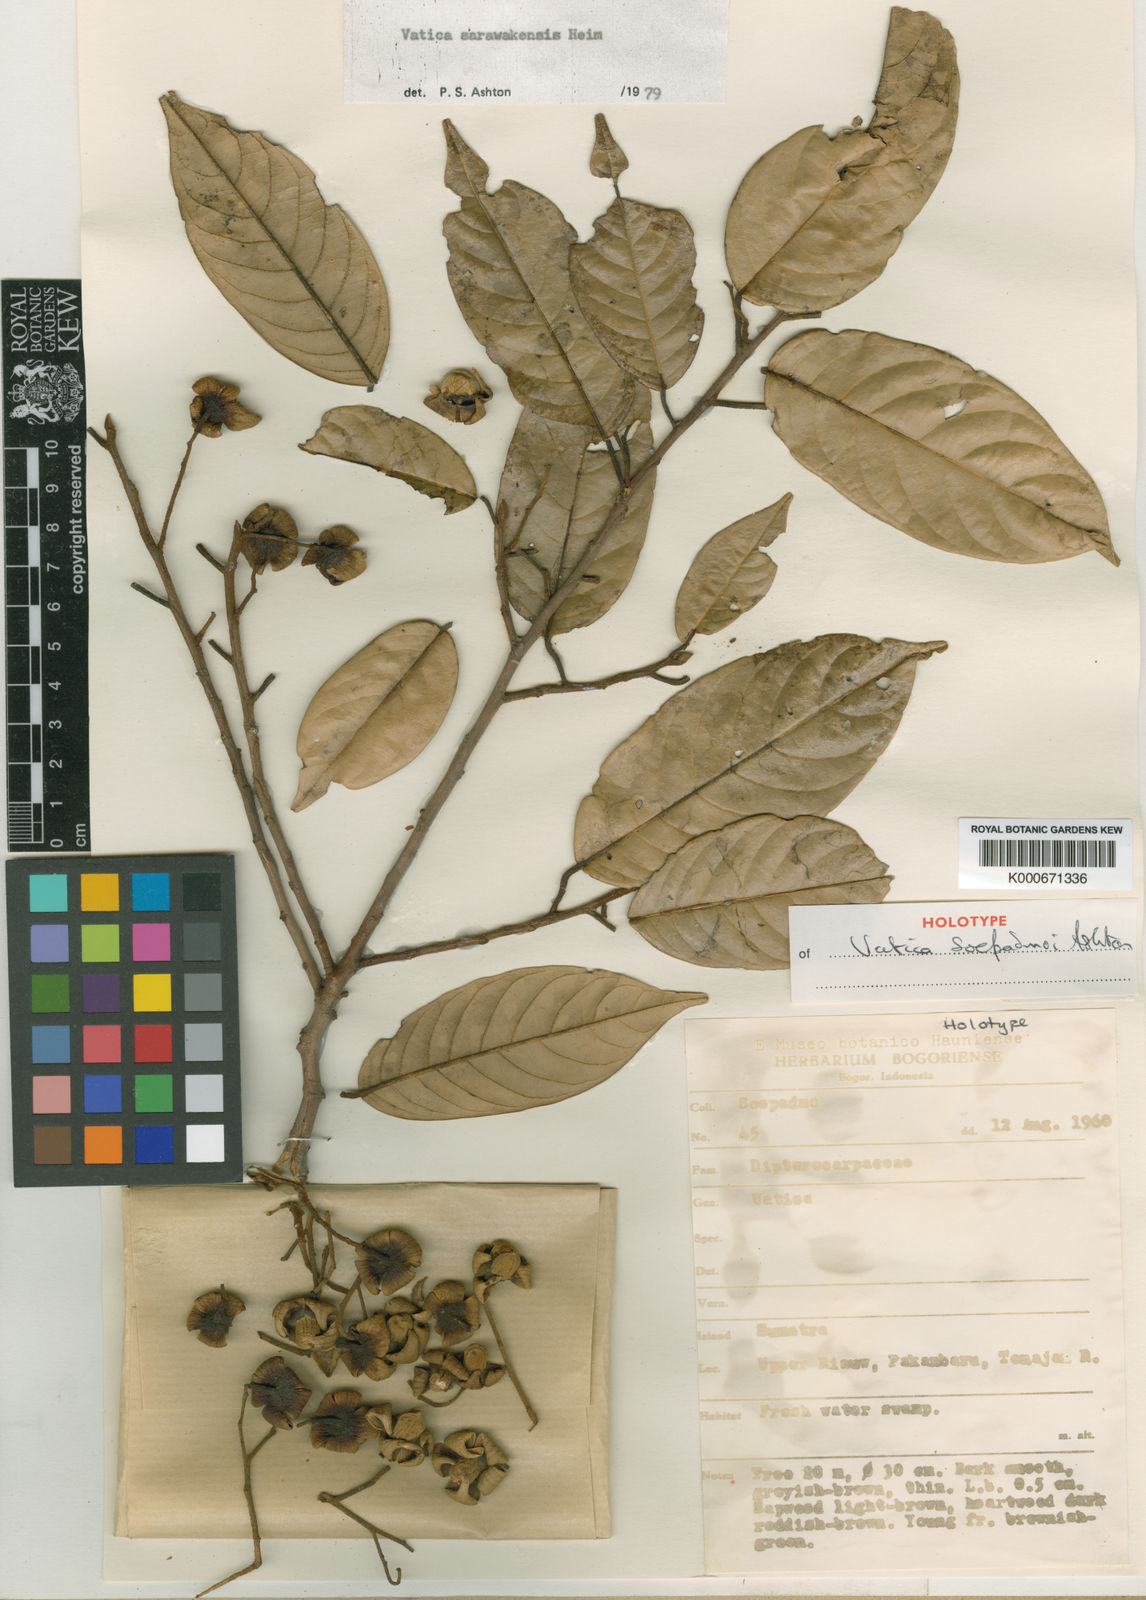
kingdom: Plantae
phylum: Tracheophyta
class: Magnoliopsida
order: Malvales
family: Dipterocarpaceae
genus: Vatica
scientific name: Vatica soepadmoi
